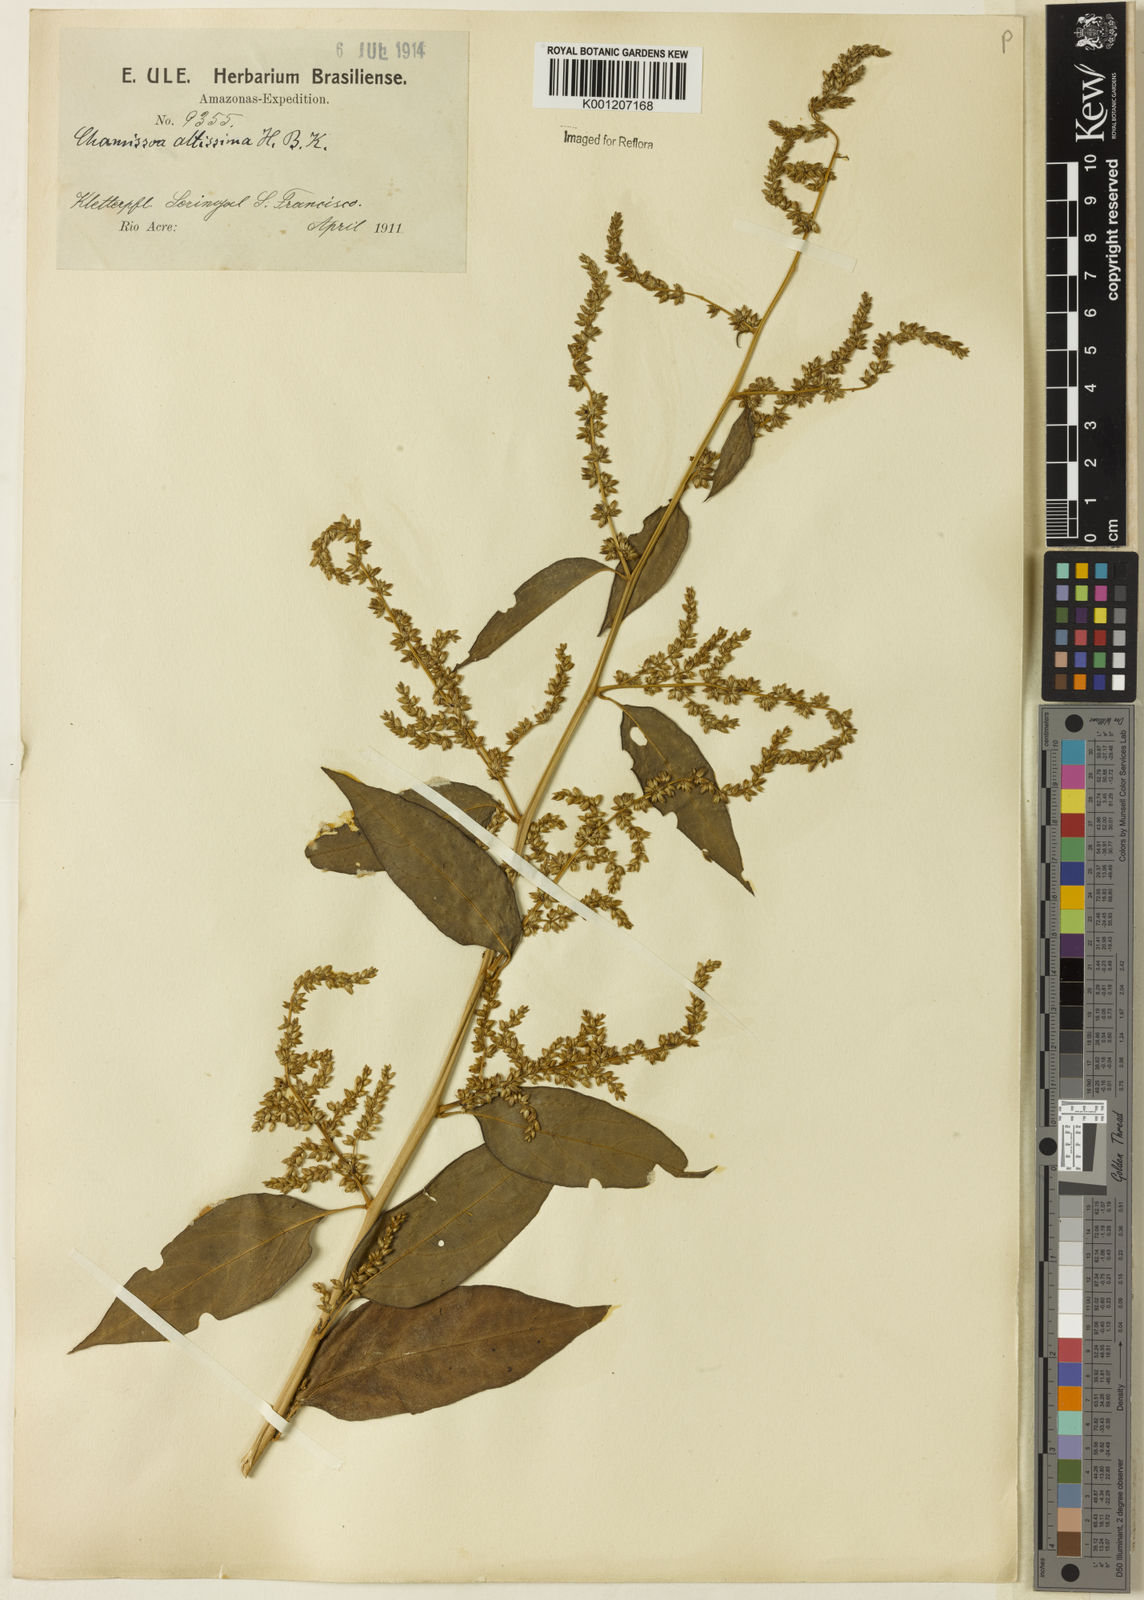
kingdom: Plantae
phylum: Tracheophyta
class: Magnoliopsida
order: Caryophyllales
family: Amaranthaceae
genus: Chamissoa
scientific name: Chamissoa altissima
